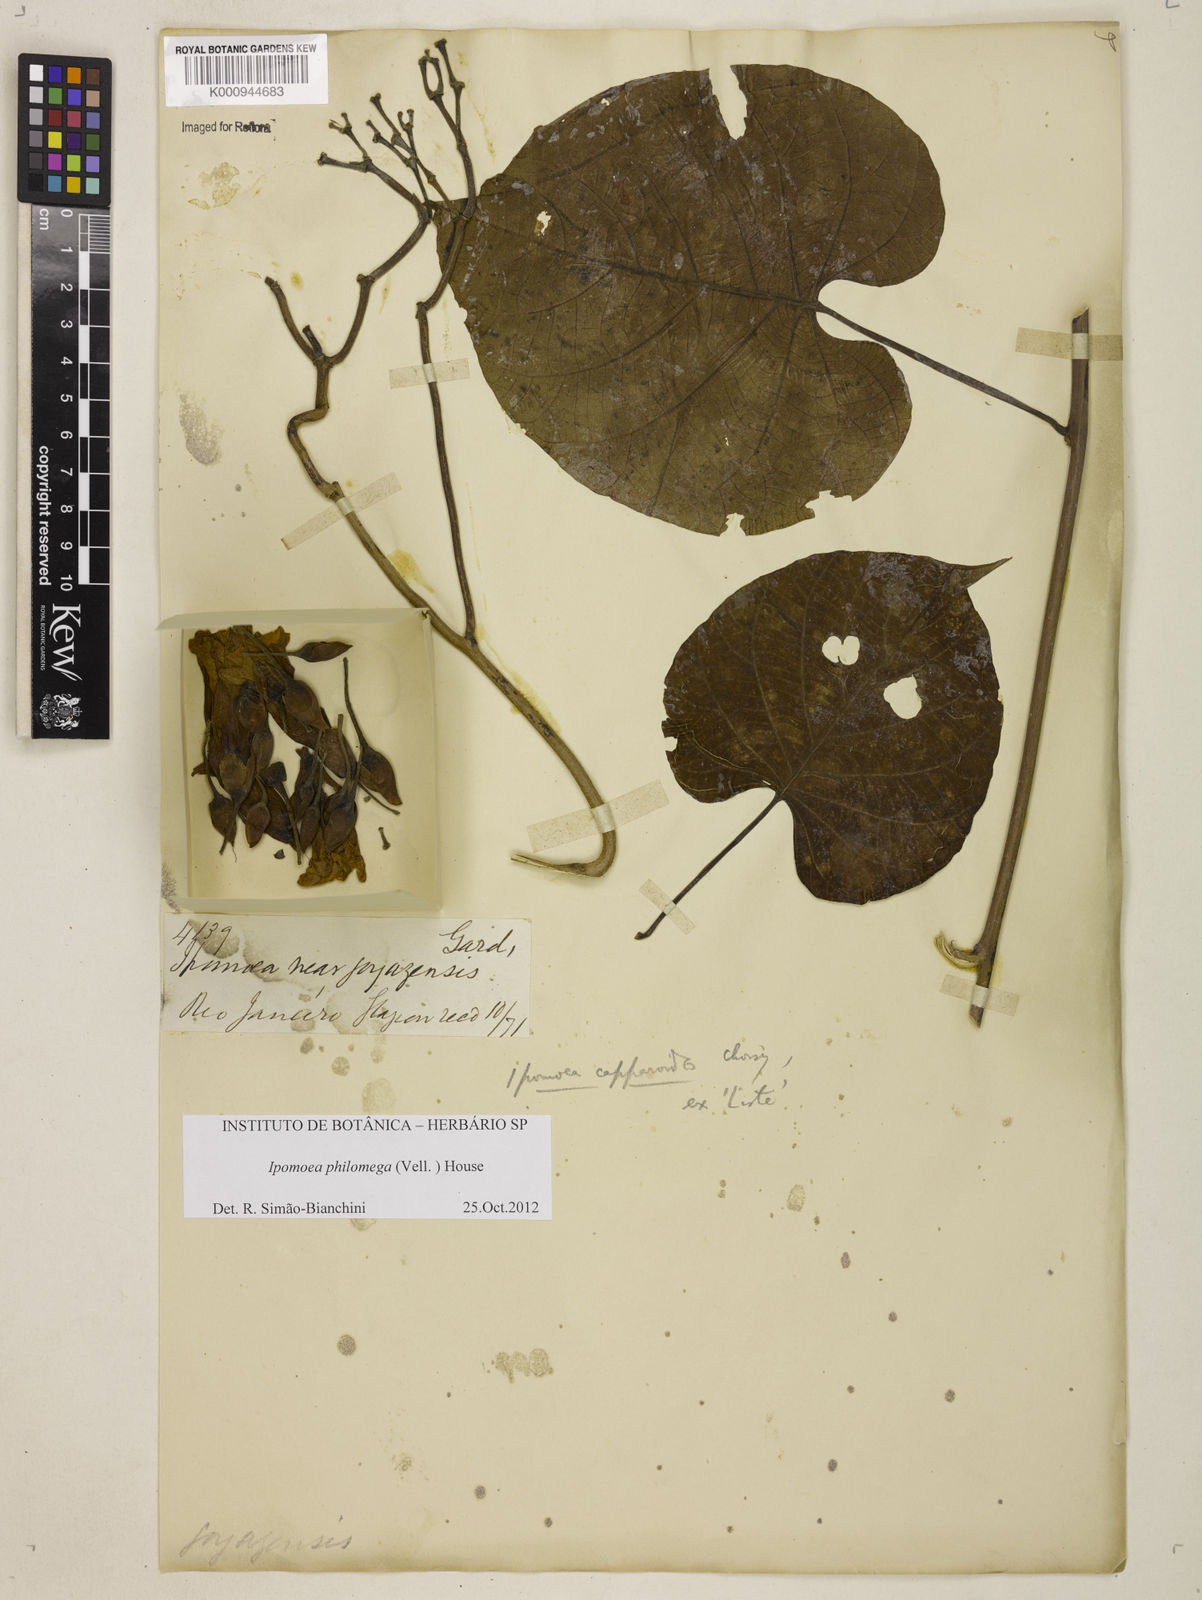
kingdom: Plantae
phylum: Tracheophyta
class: Magnoliopsida
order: Solanales
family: Convolvulaceae
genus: Ipomoea
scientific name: Ipomoea philomega
